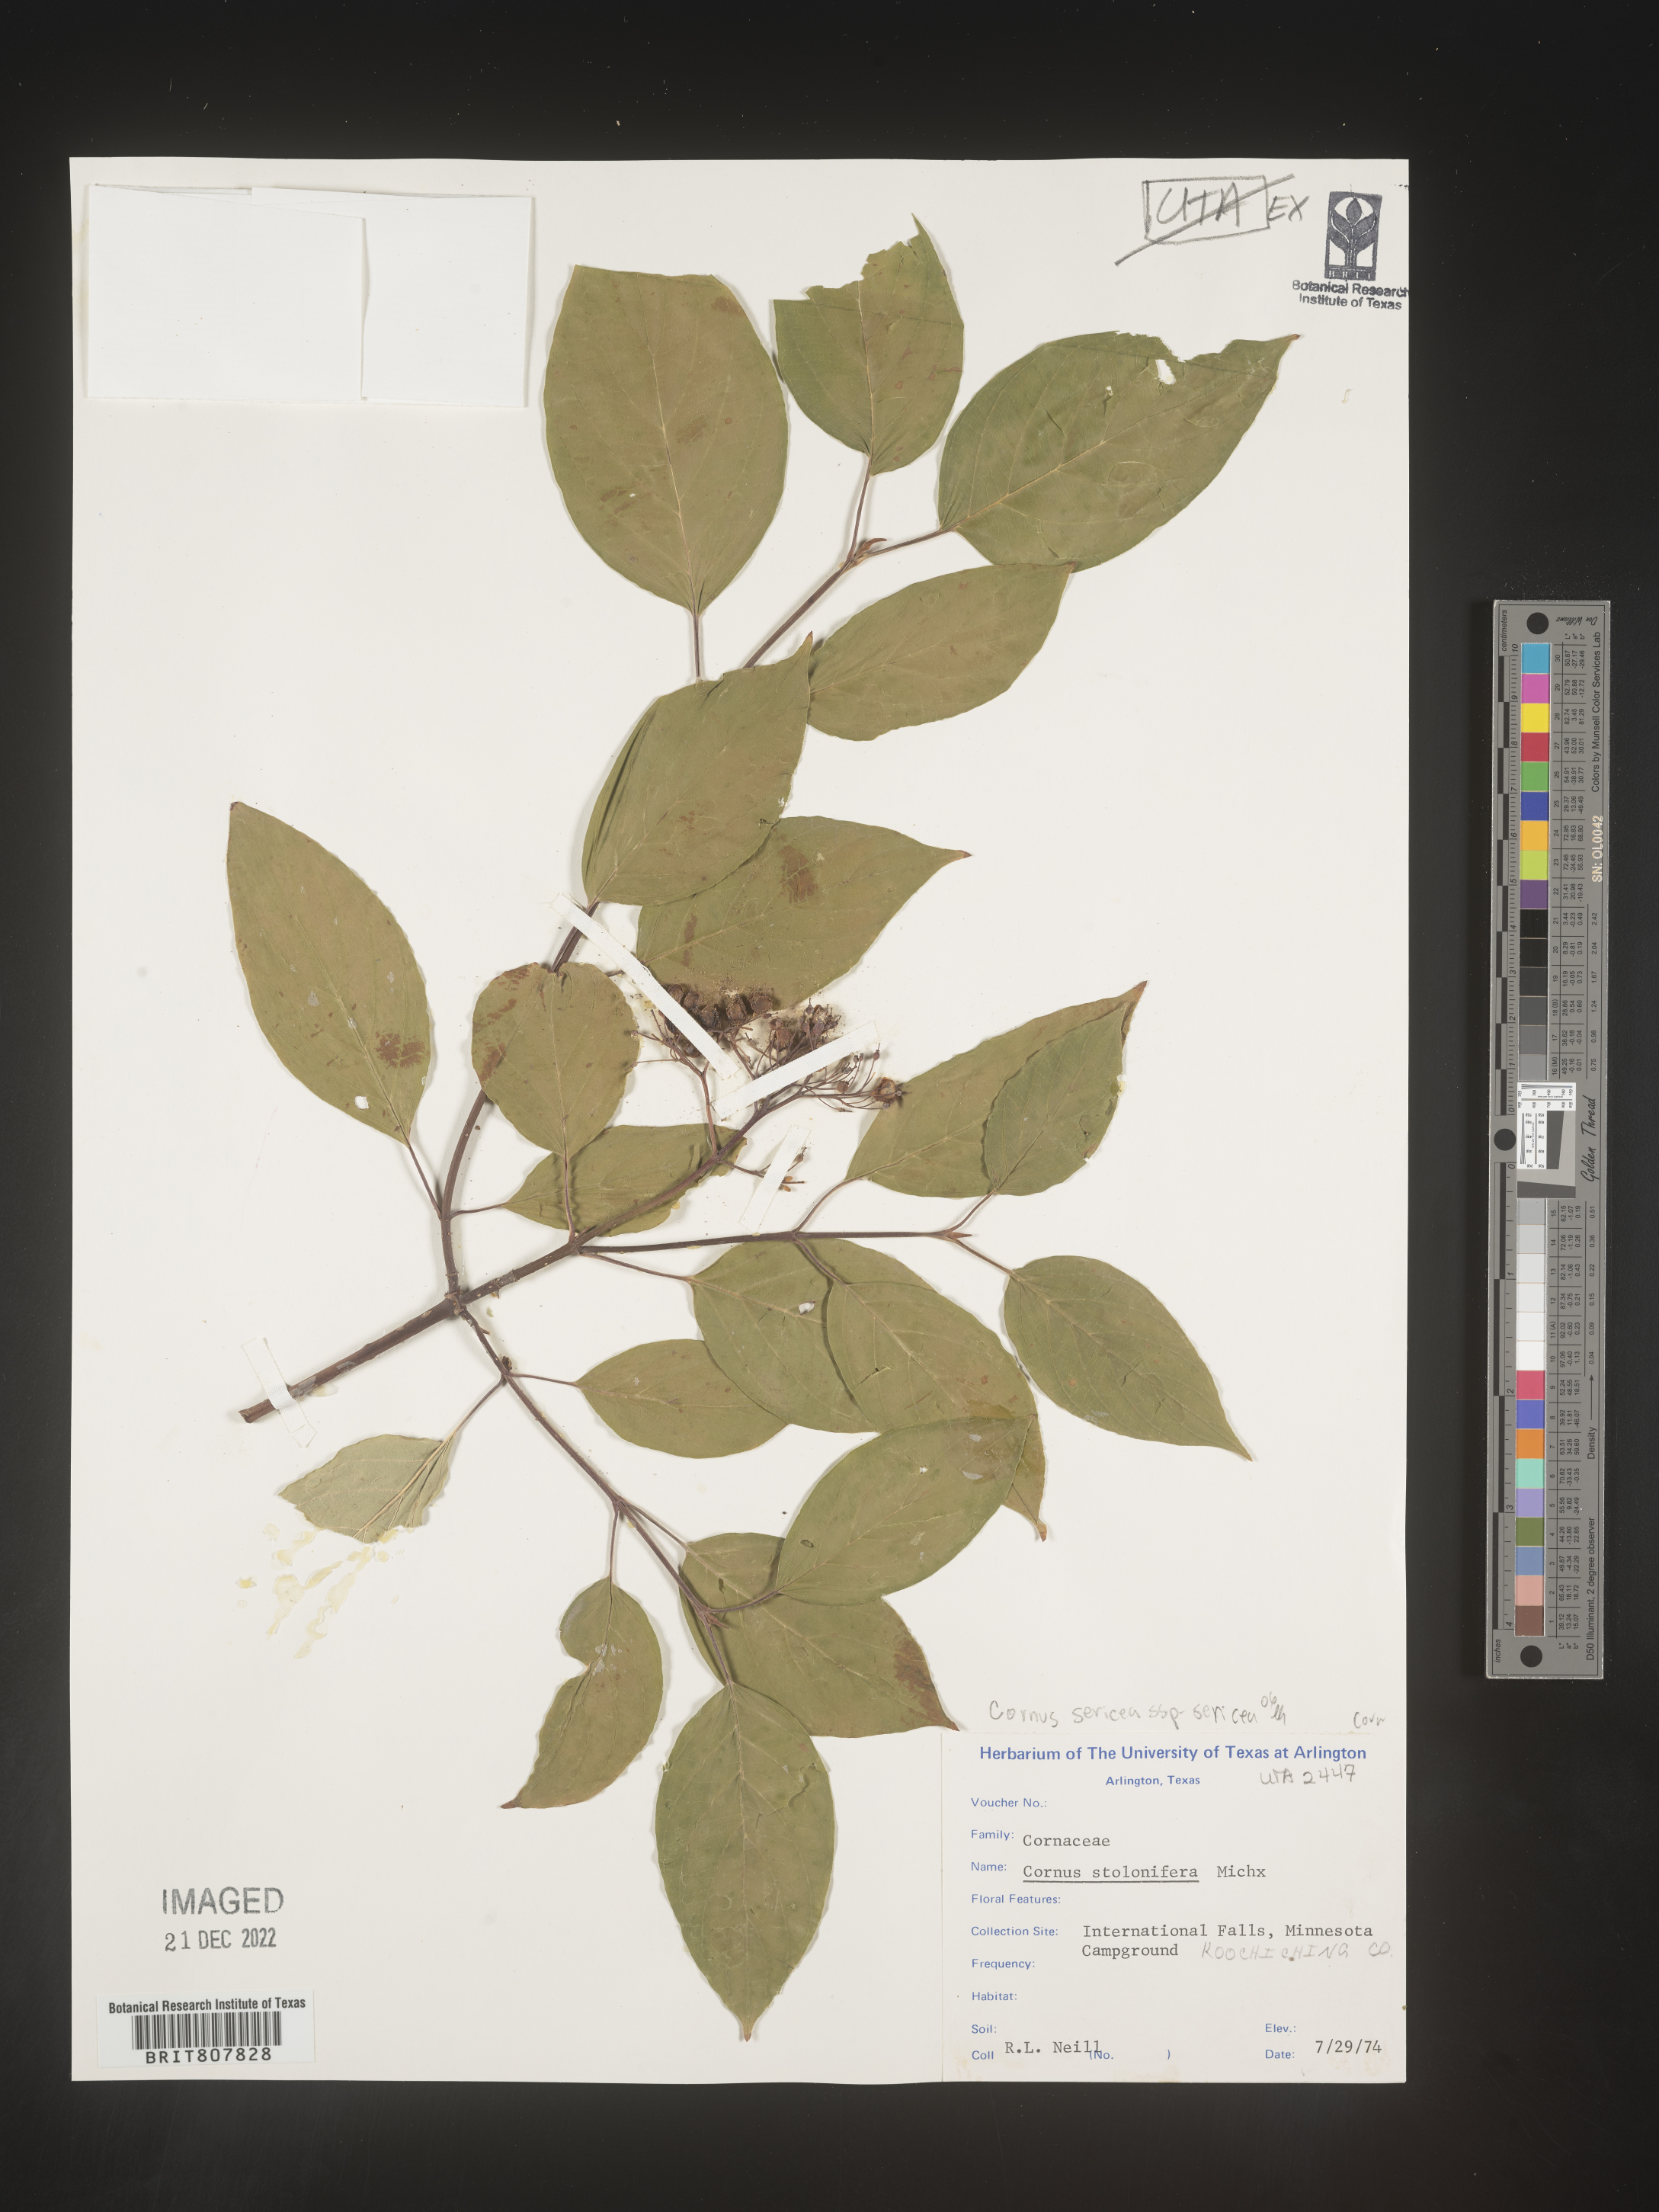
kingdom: Plantae
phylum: Tracheophyta
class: Magnoliopsida
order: Cornales
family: Cornaceae
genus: Cornus
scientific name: Cornus
